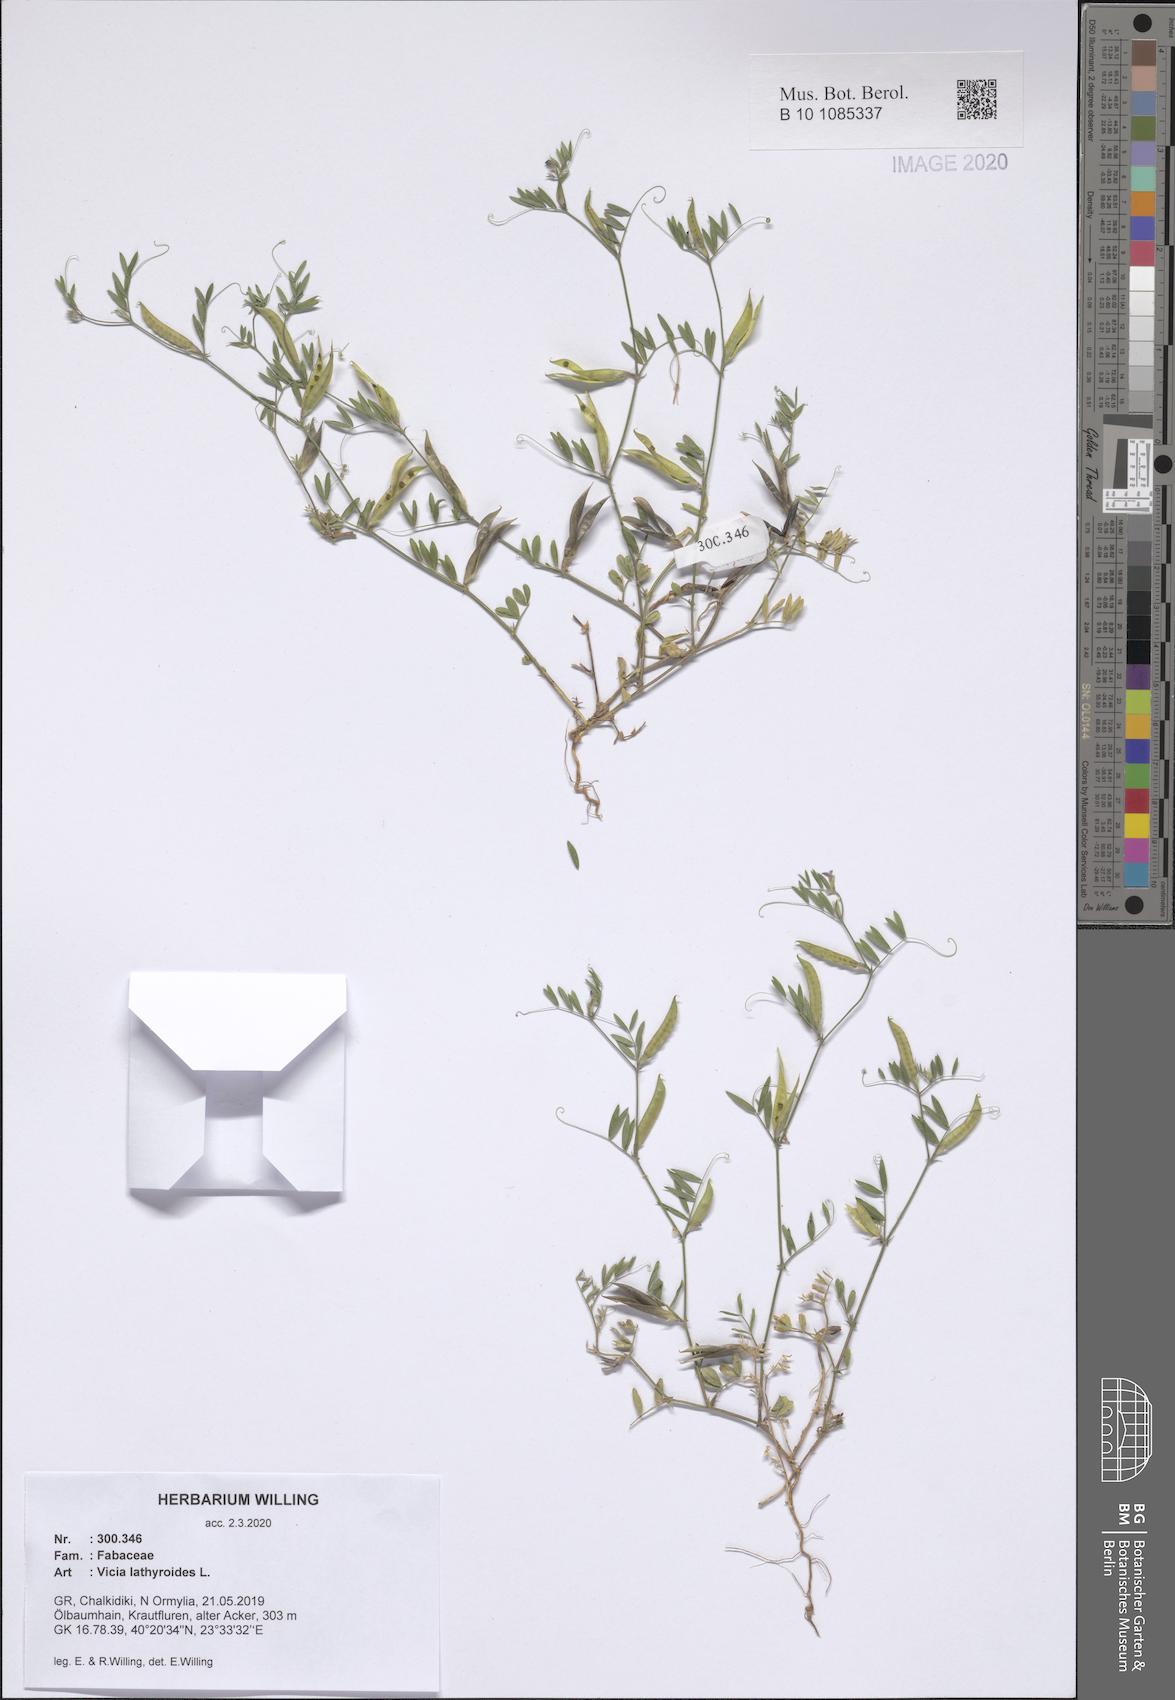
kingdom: Plantae
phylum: Tracheophyta
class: Magnoliopsida
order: Fabales
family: Fabaceae
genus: Vicia
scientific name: Vicia lathyroides
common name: Spring vetch
